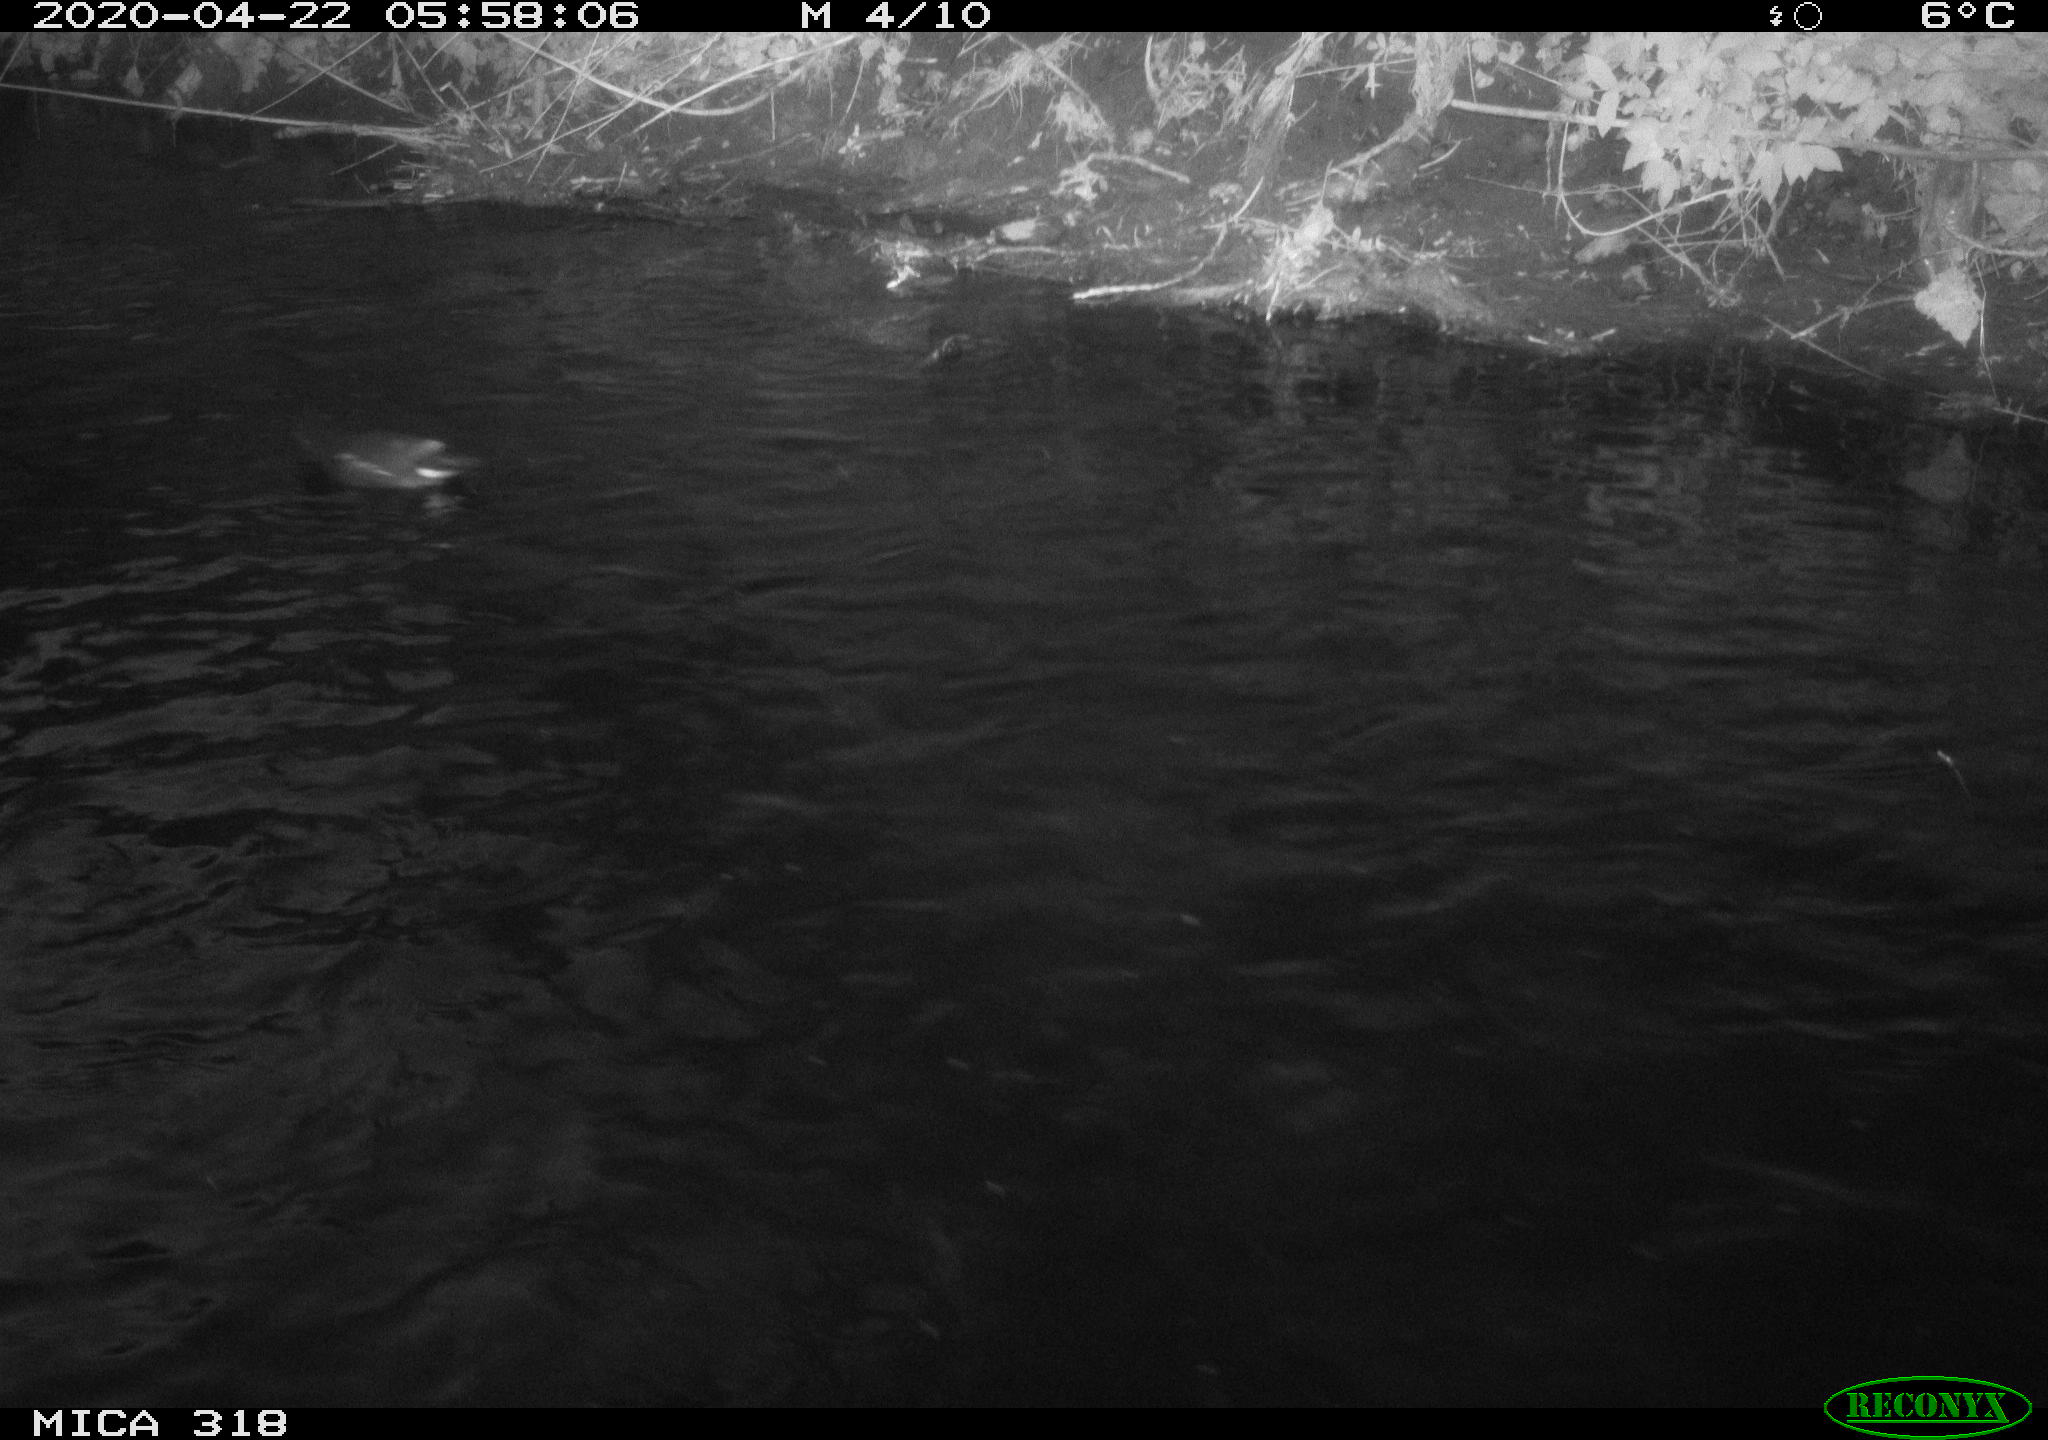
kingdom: Animalia
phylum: Chordata
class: Aves
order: Gruiformes
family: Rallidae
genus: Gallinula
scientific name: Gallinula chloropus
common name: Common moorhen
